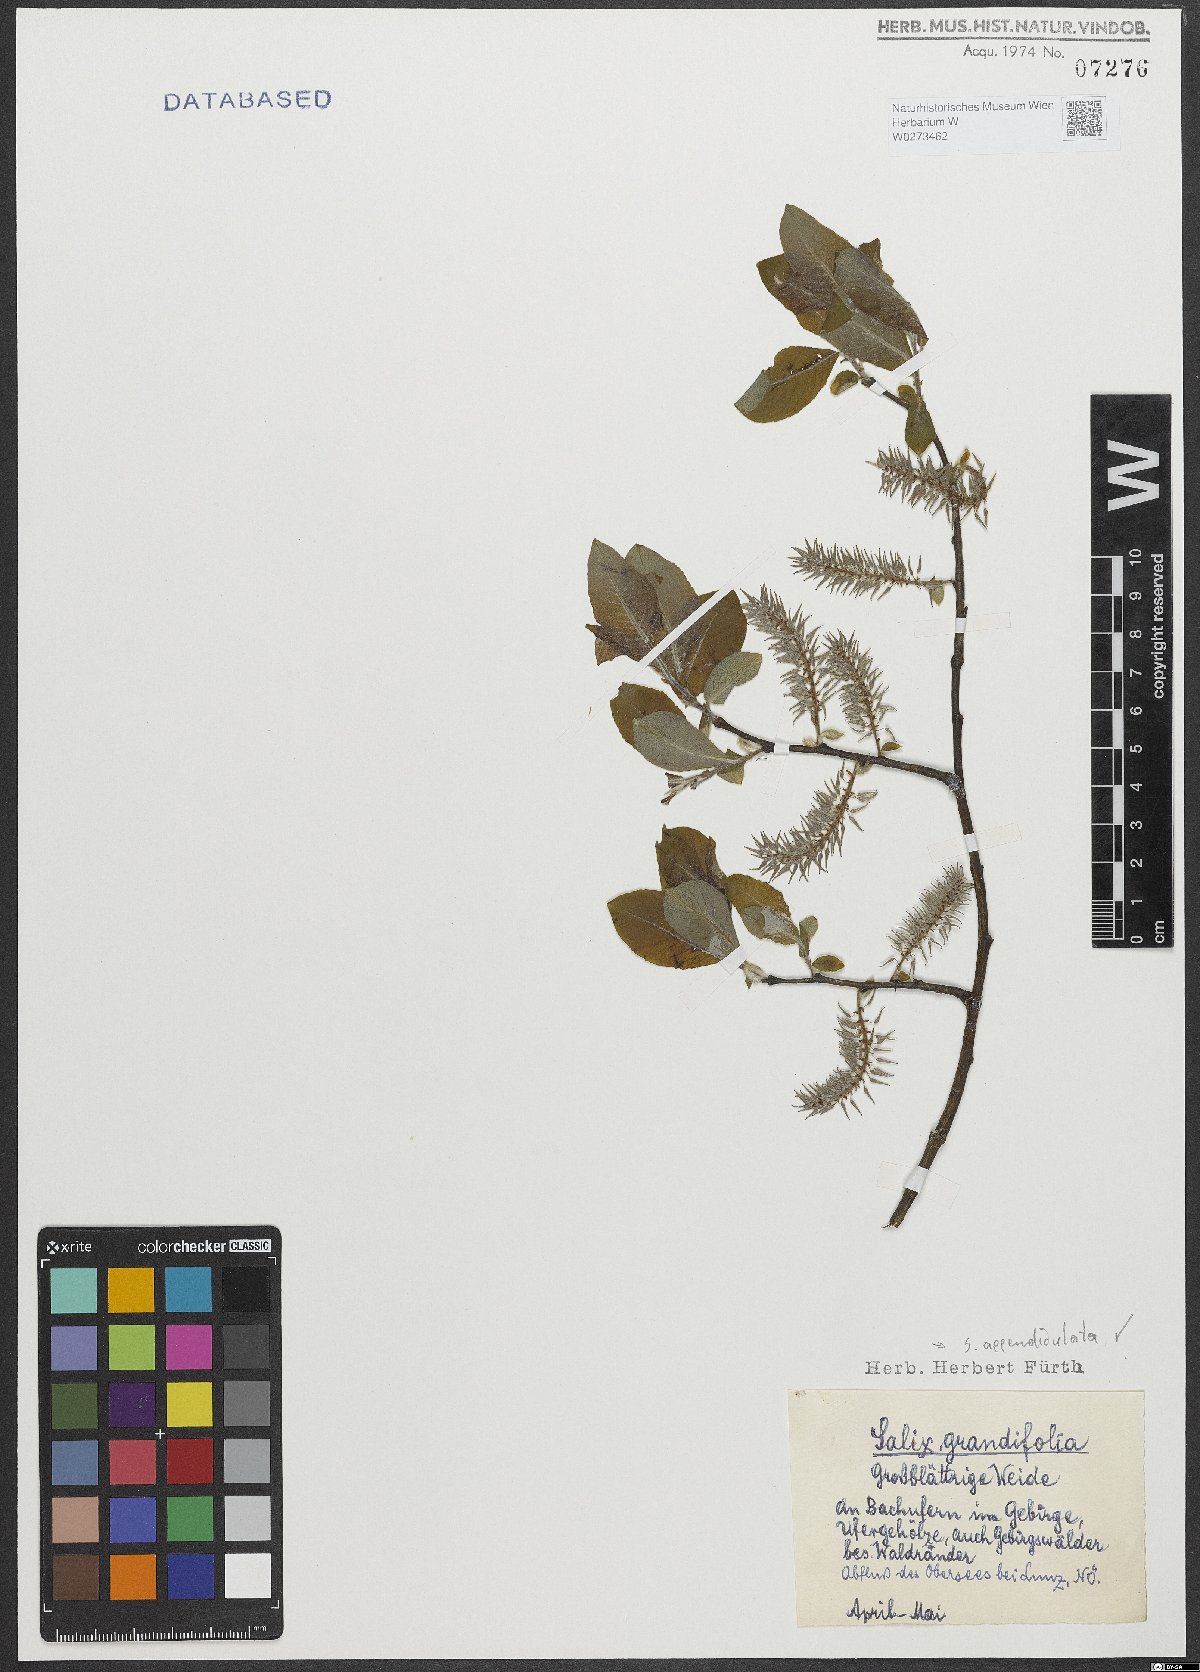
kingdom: Plantae
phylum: Tracheophyta
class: Magnoliopsida
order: Malpighiales
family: Salicaceae
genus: Salix
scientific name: Salix appendiculata
